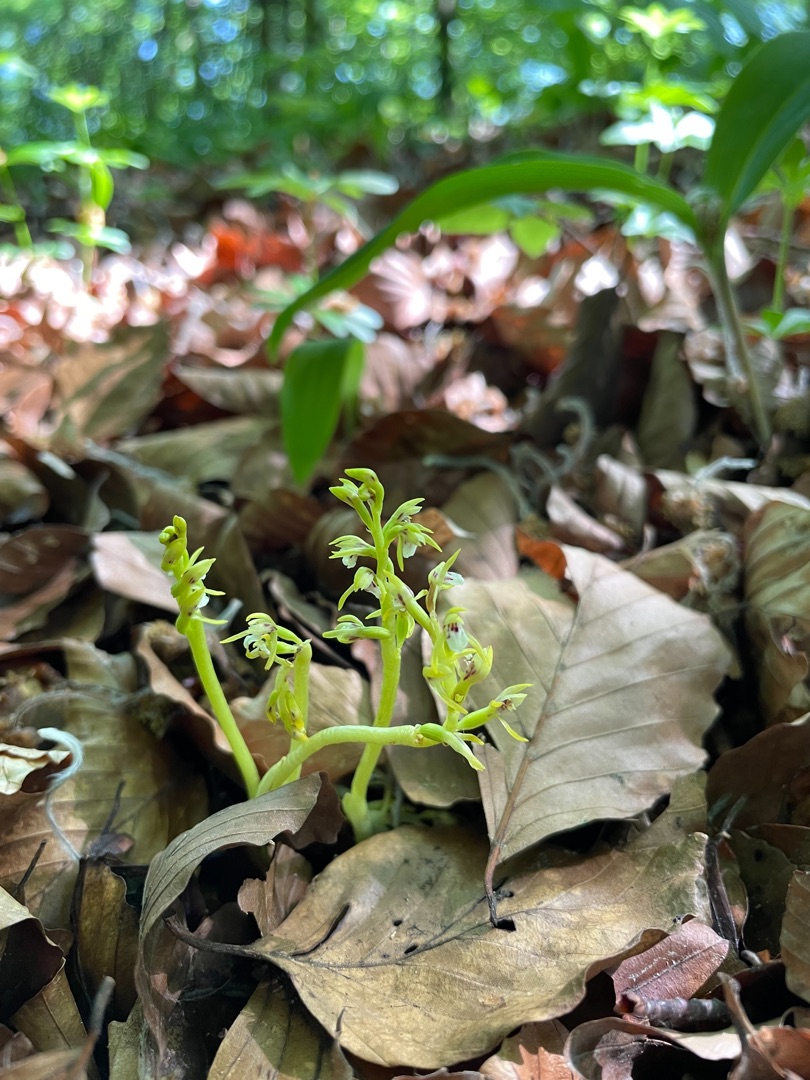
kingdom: Plantae
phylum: Tracheophyta
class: Liliopsida
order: Asparagales
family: Orchidaceae
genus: Corallorhiza
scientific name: Corallorhiza trifida
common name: Koralrod
